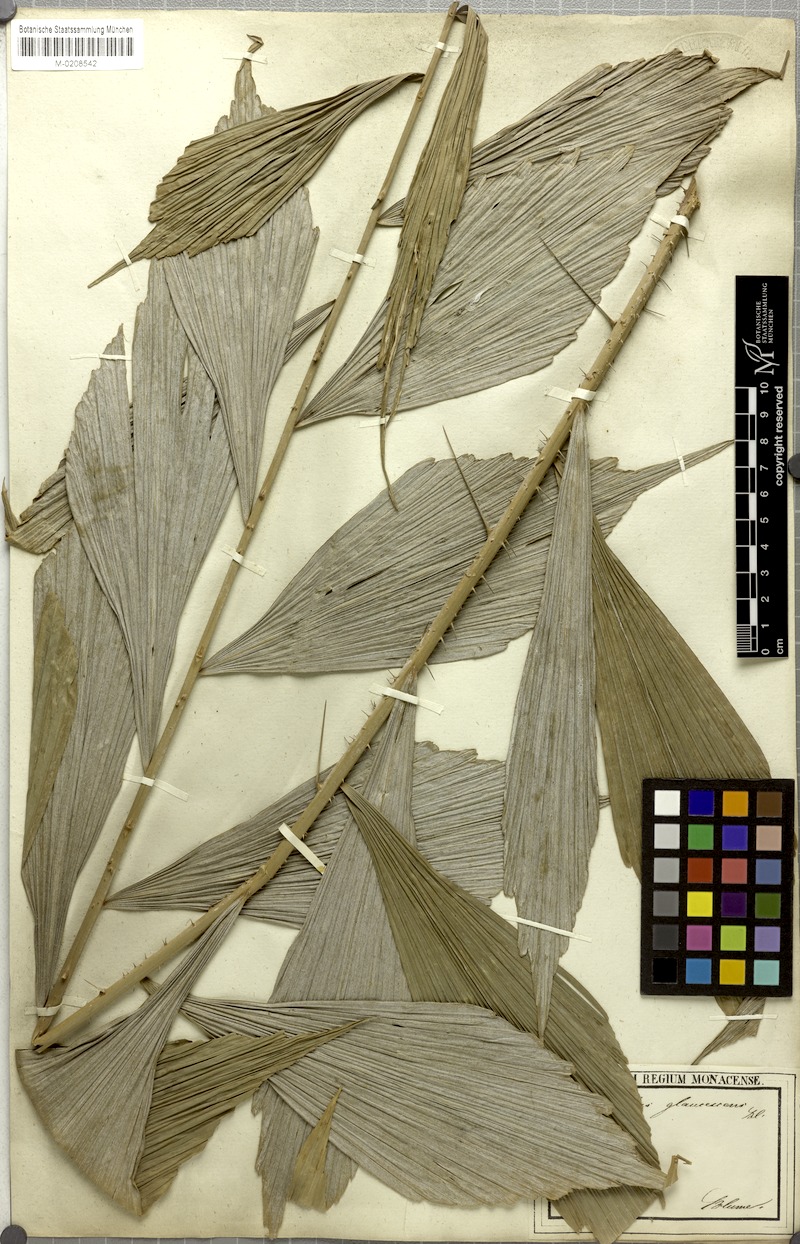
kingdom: Plantae
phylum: Tracheophyta
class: Liliopsida
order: Arecales
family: Arecaceae
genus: Calamus
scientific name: Calamus glaucescens
